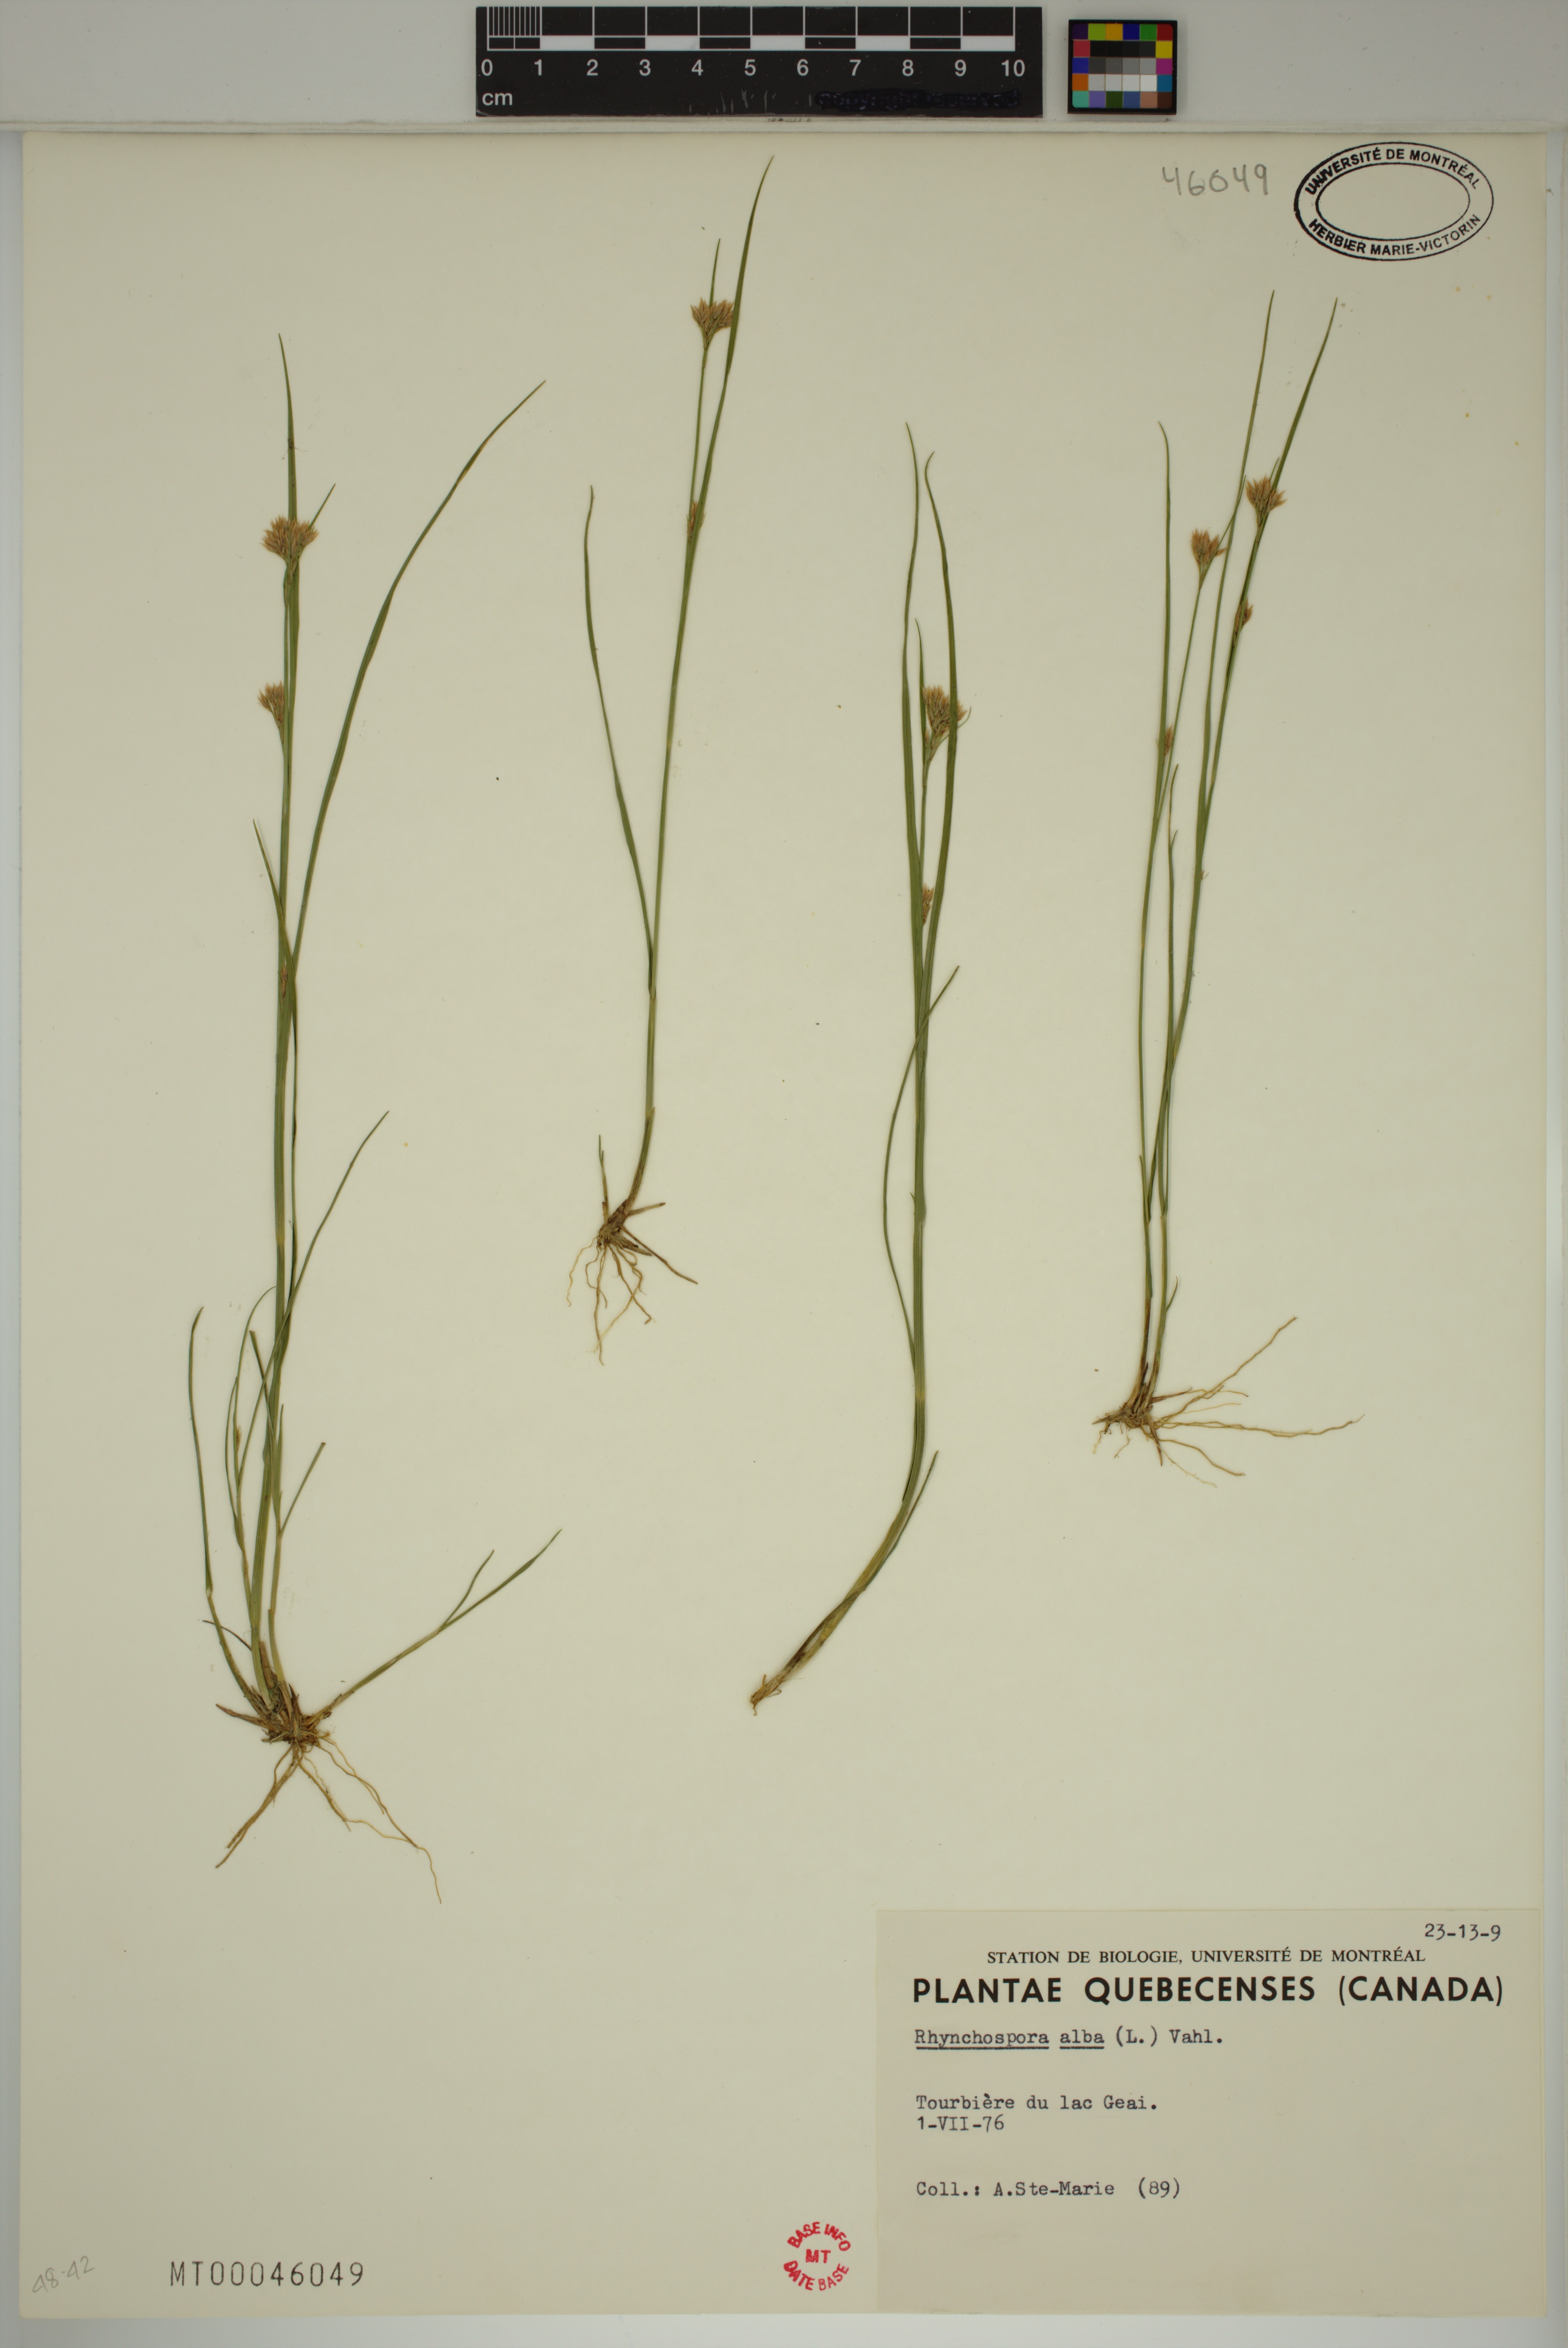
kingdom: Plantae
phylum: Tracheophyta
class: Liliopsida
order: Poales
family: Cyperaceae
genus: Rhynchospora
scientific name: Rhynchospora alba
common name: White beak-sedge
